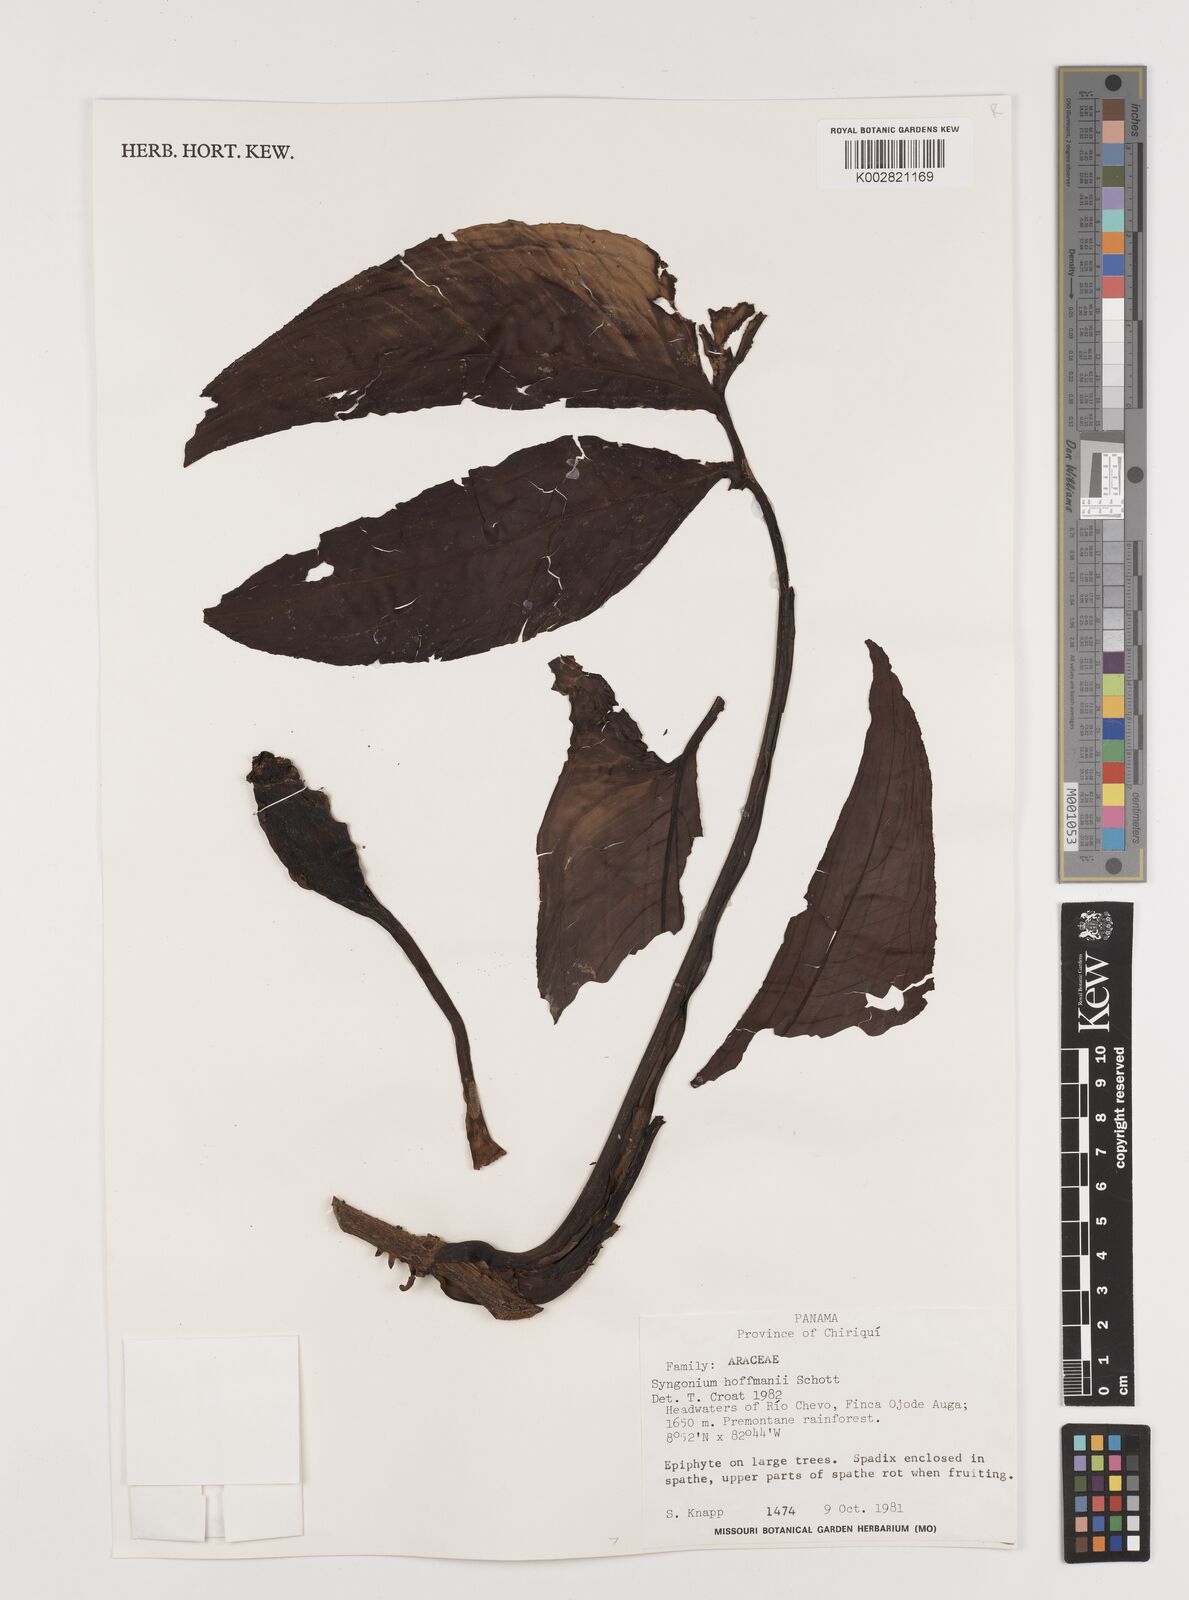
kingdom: Plantae
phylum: Tracheophyta
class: Liliopsida
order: Alismatales
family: Araceae
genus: Syngonium
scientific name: Syngonium hoffmannii
